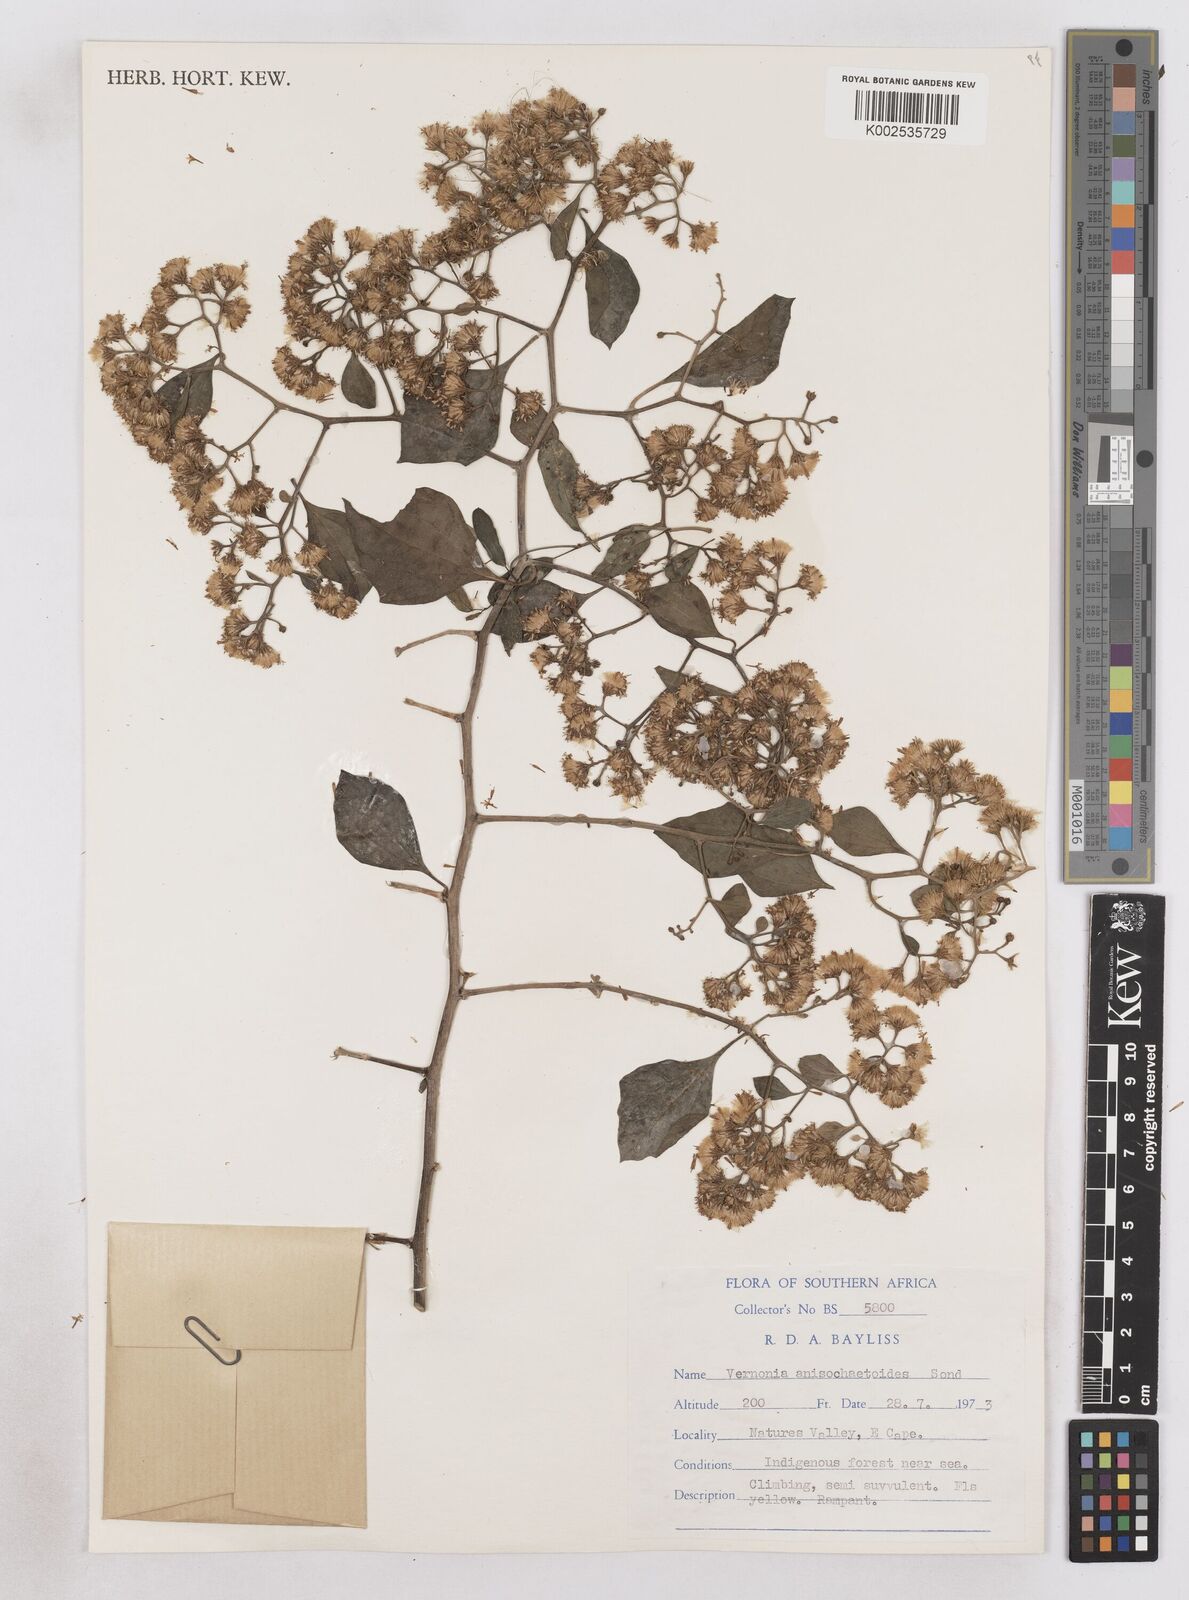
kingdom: Plantae
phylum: Tracheophyta
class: Magnoliopsida
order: Asterales
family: Asteraceae
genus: Distephanus
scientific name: Distephanus anisochaetoides
